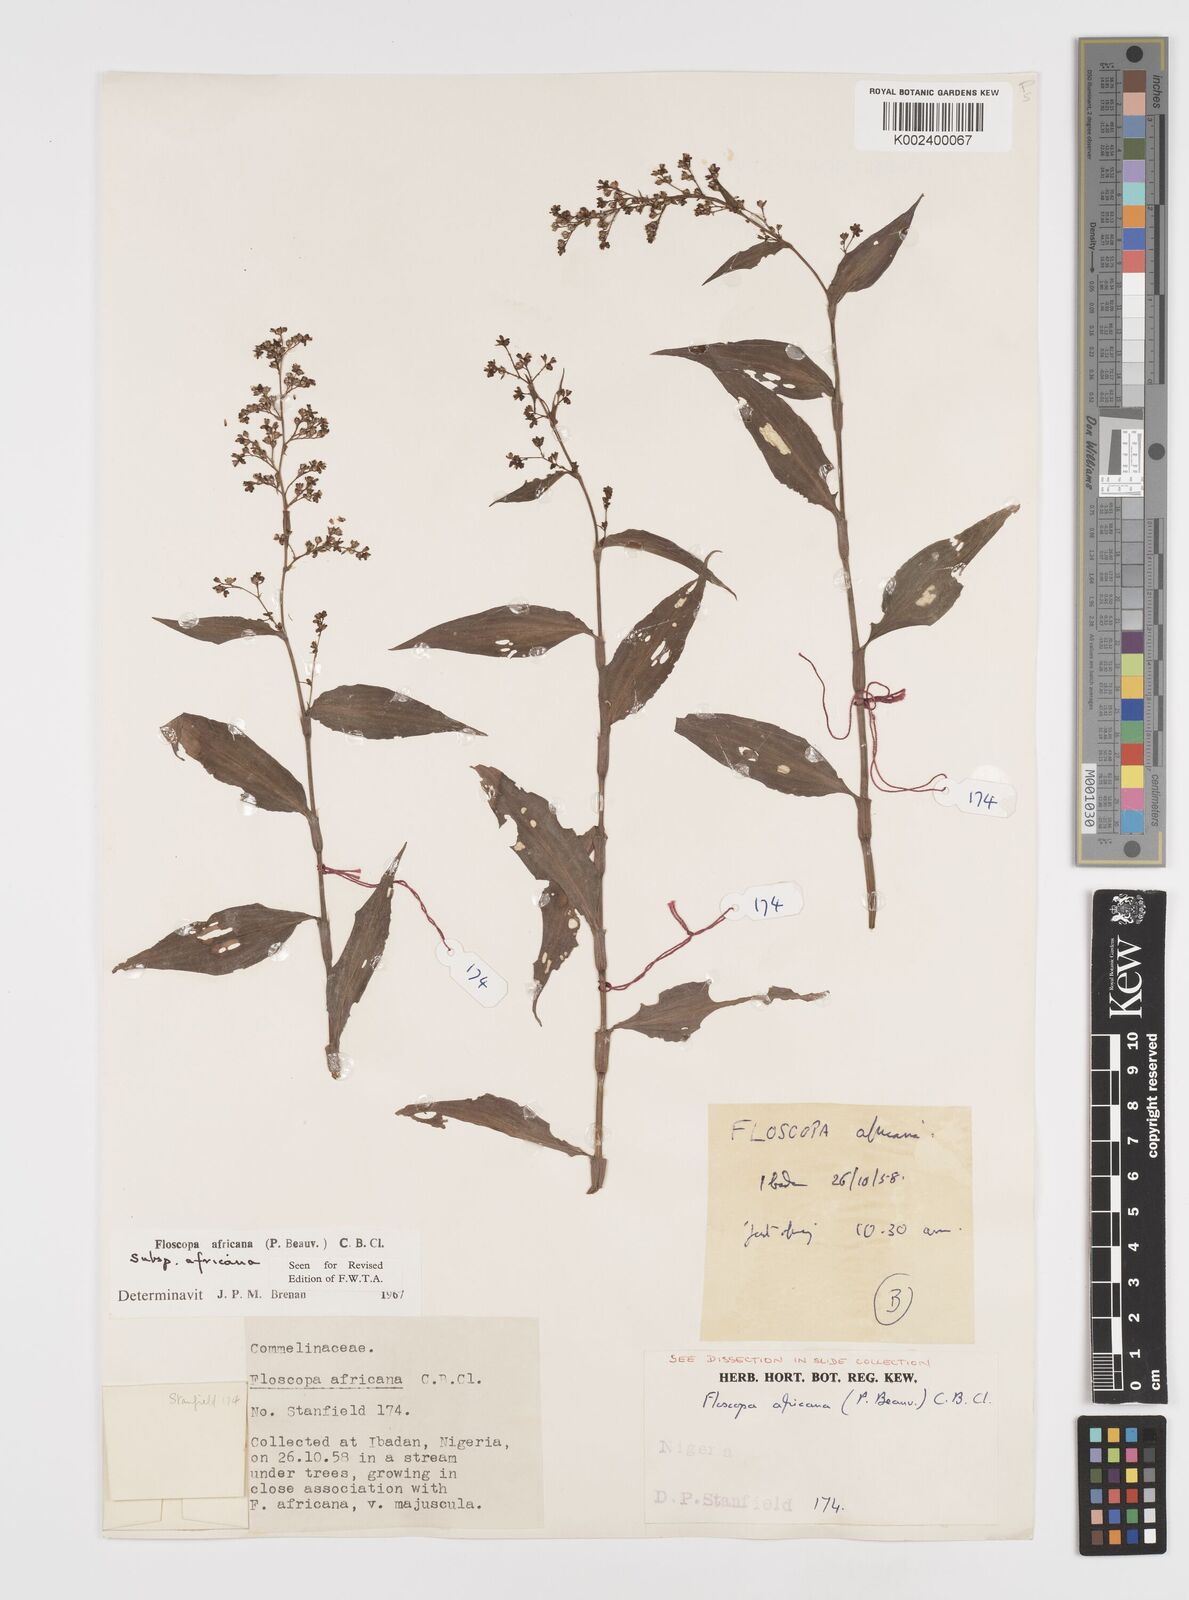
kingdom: Plantae
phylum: Tracheophyta
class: Liliopsida
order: Commelinales
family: Commelinaceae
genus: Floscopa
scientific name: Floscopa africana
